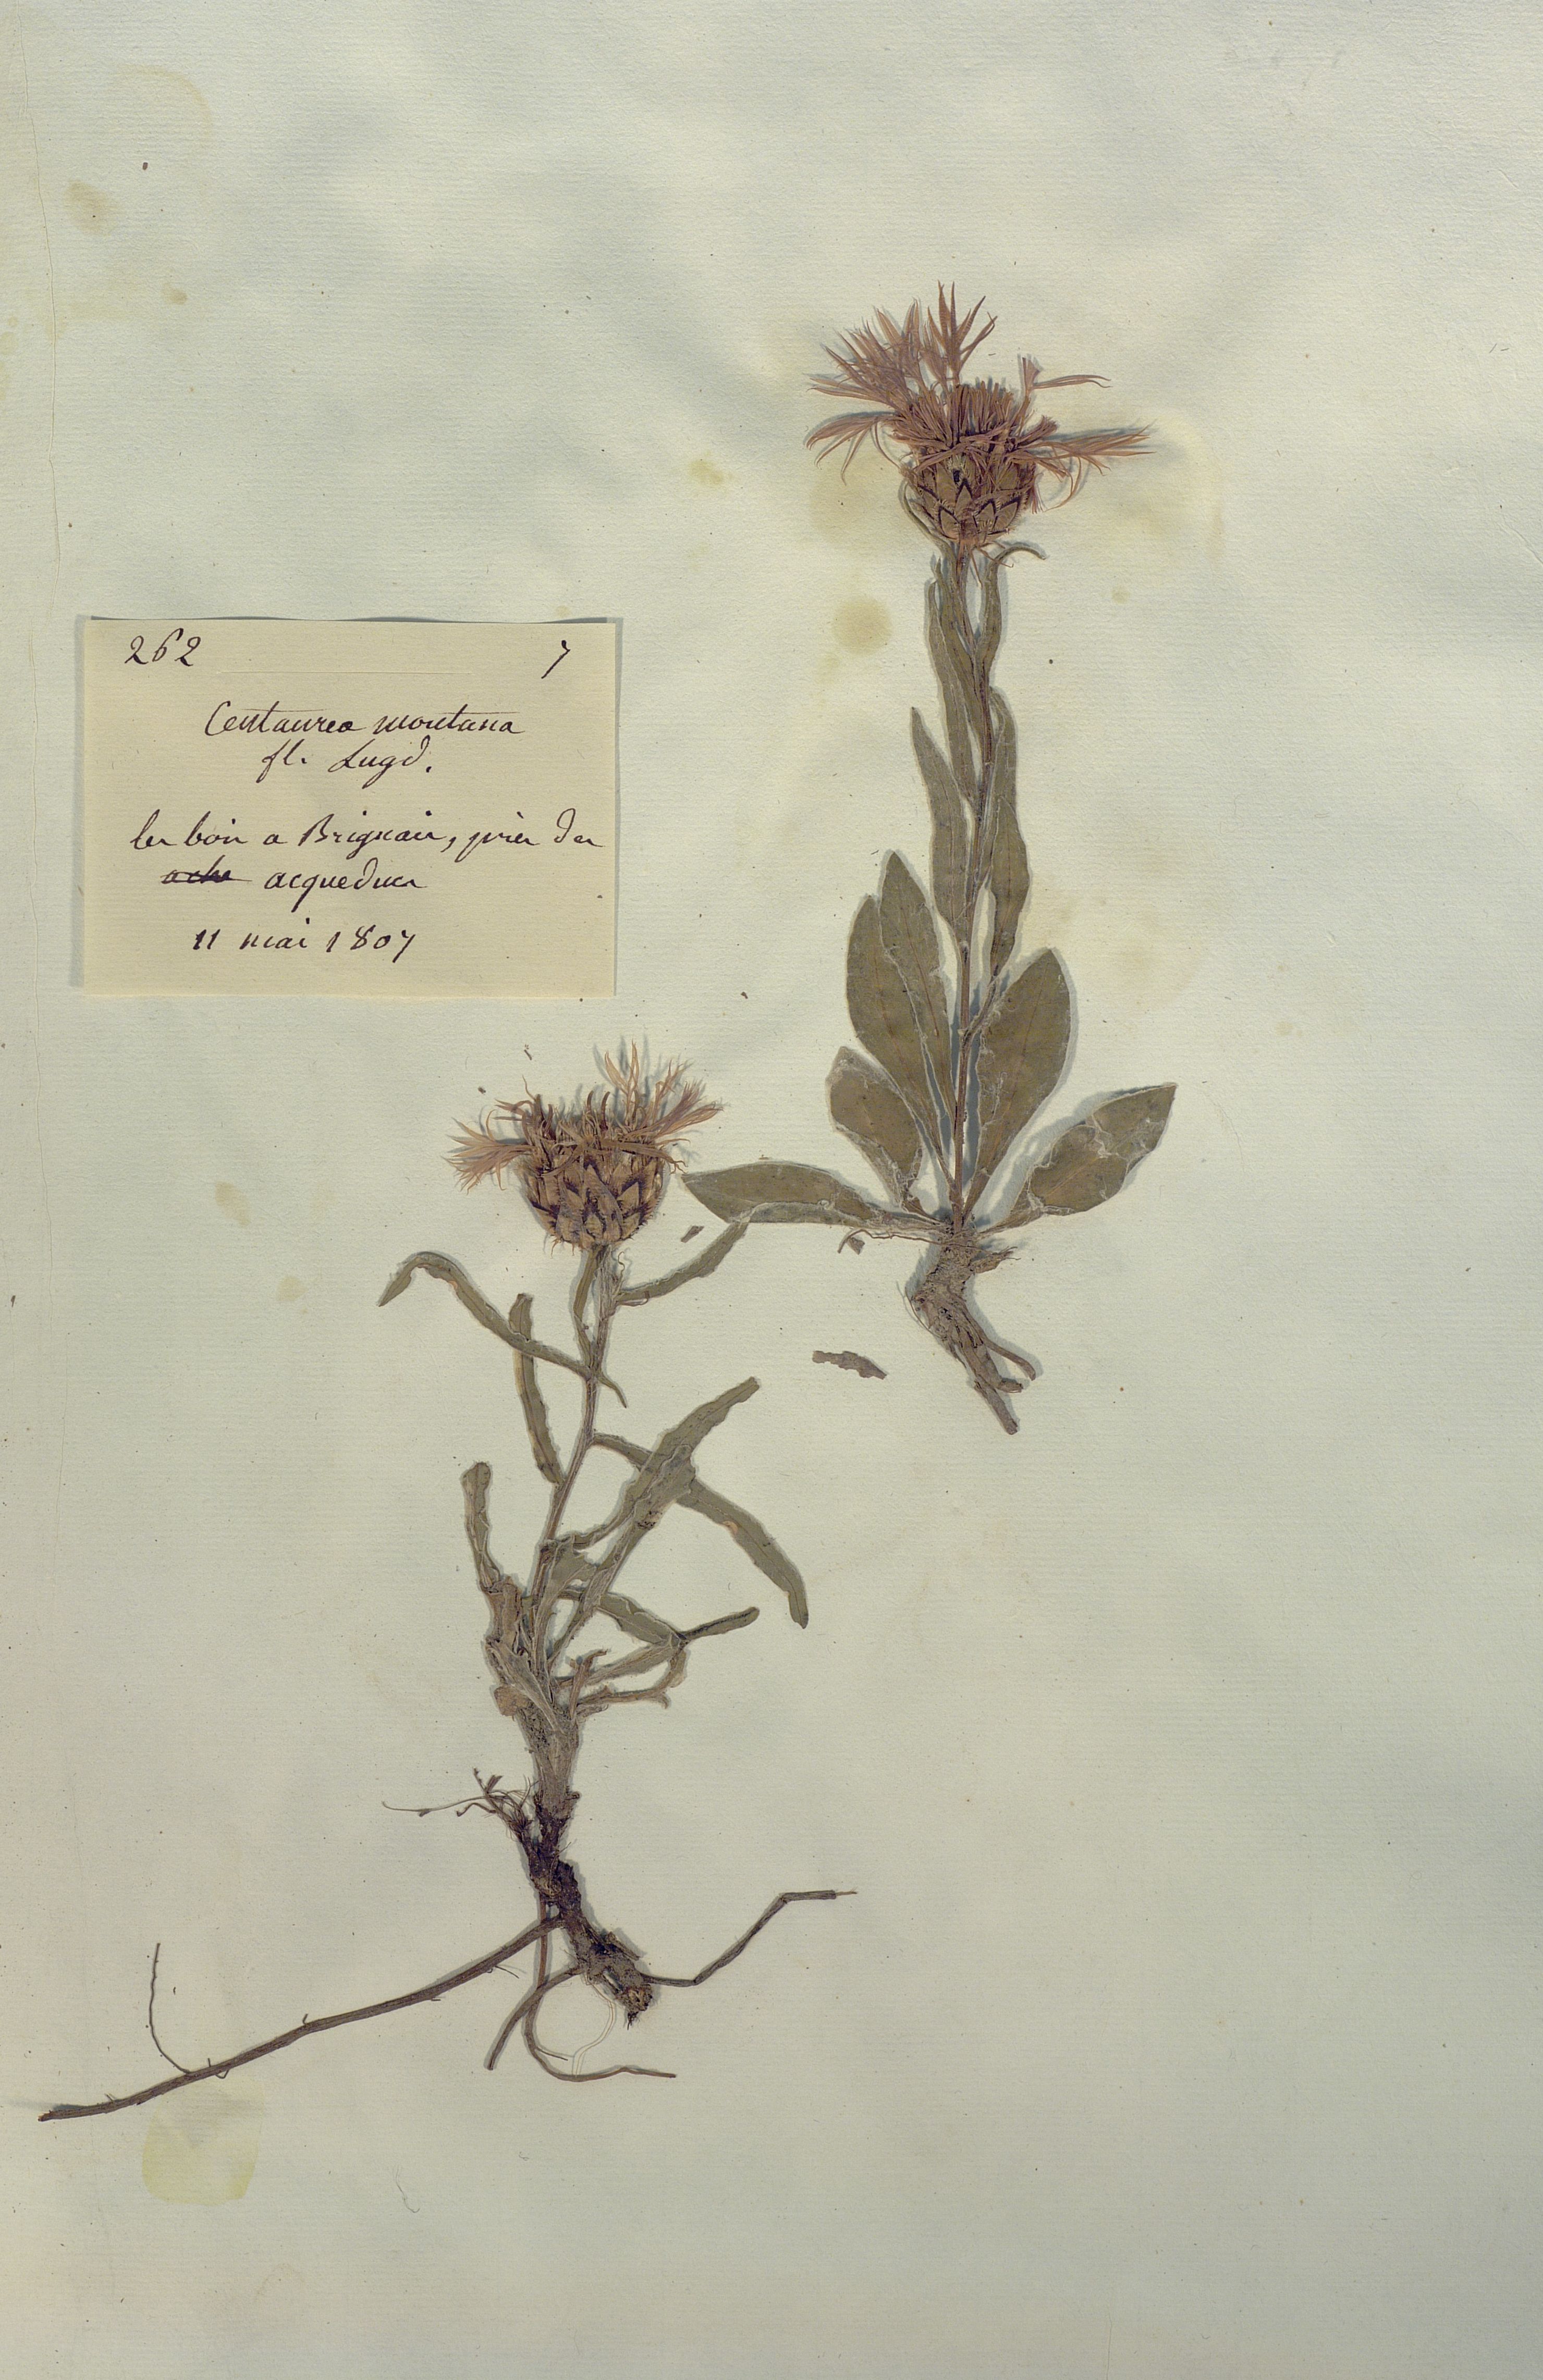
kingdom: Plantae
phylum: Tracheophyta
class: Magnoliopsida
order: Asterales
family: Asteraceae
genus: Centaurea
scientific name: Centaurea montana
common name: Perennial cornflower
